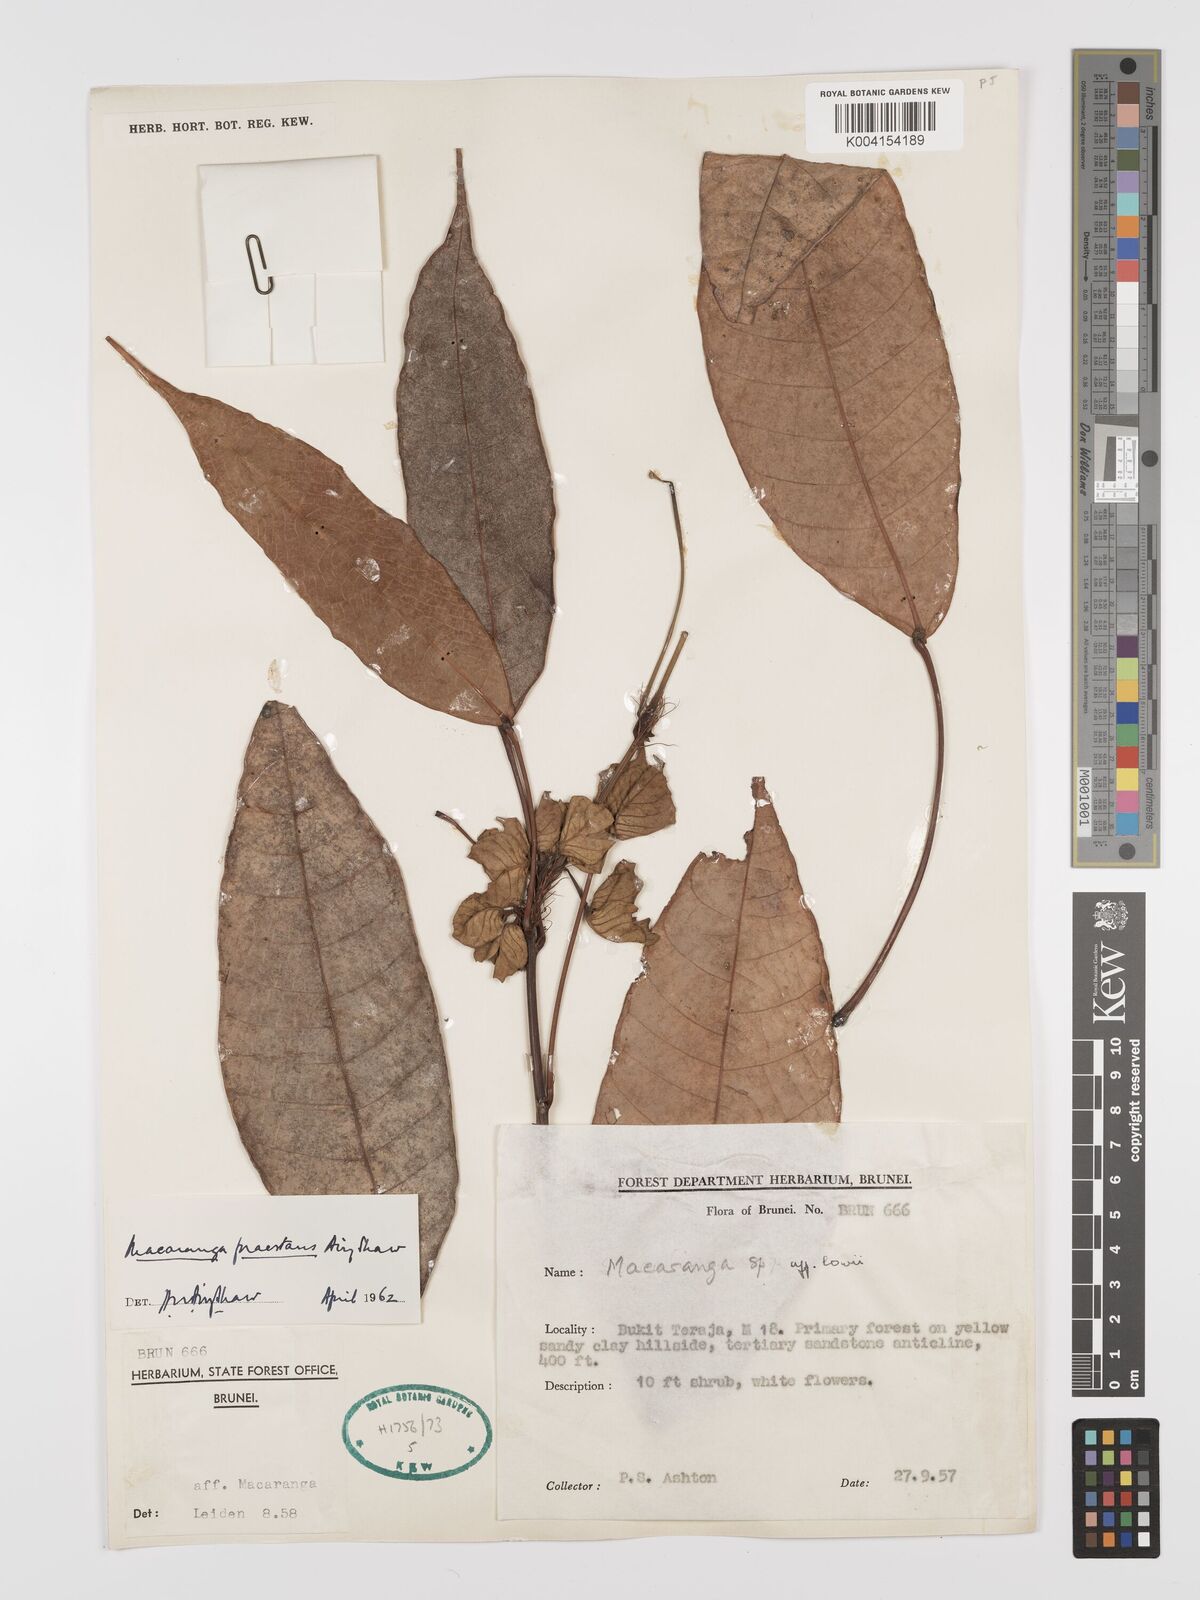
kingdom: Plantae
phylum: Tracheophyta
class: Magnoliopsida
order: Malpighiales
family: Euphorbiaceae
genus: Macaranga
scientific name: Macaranga praestans
